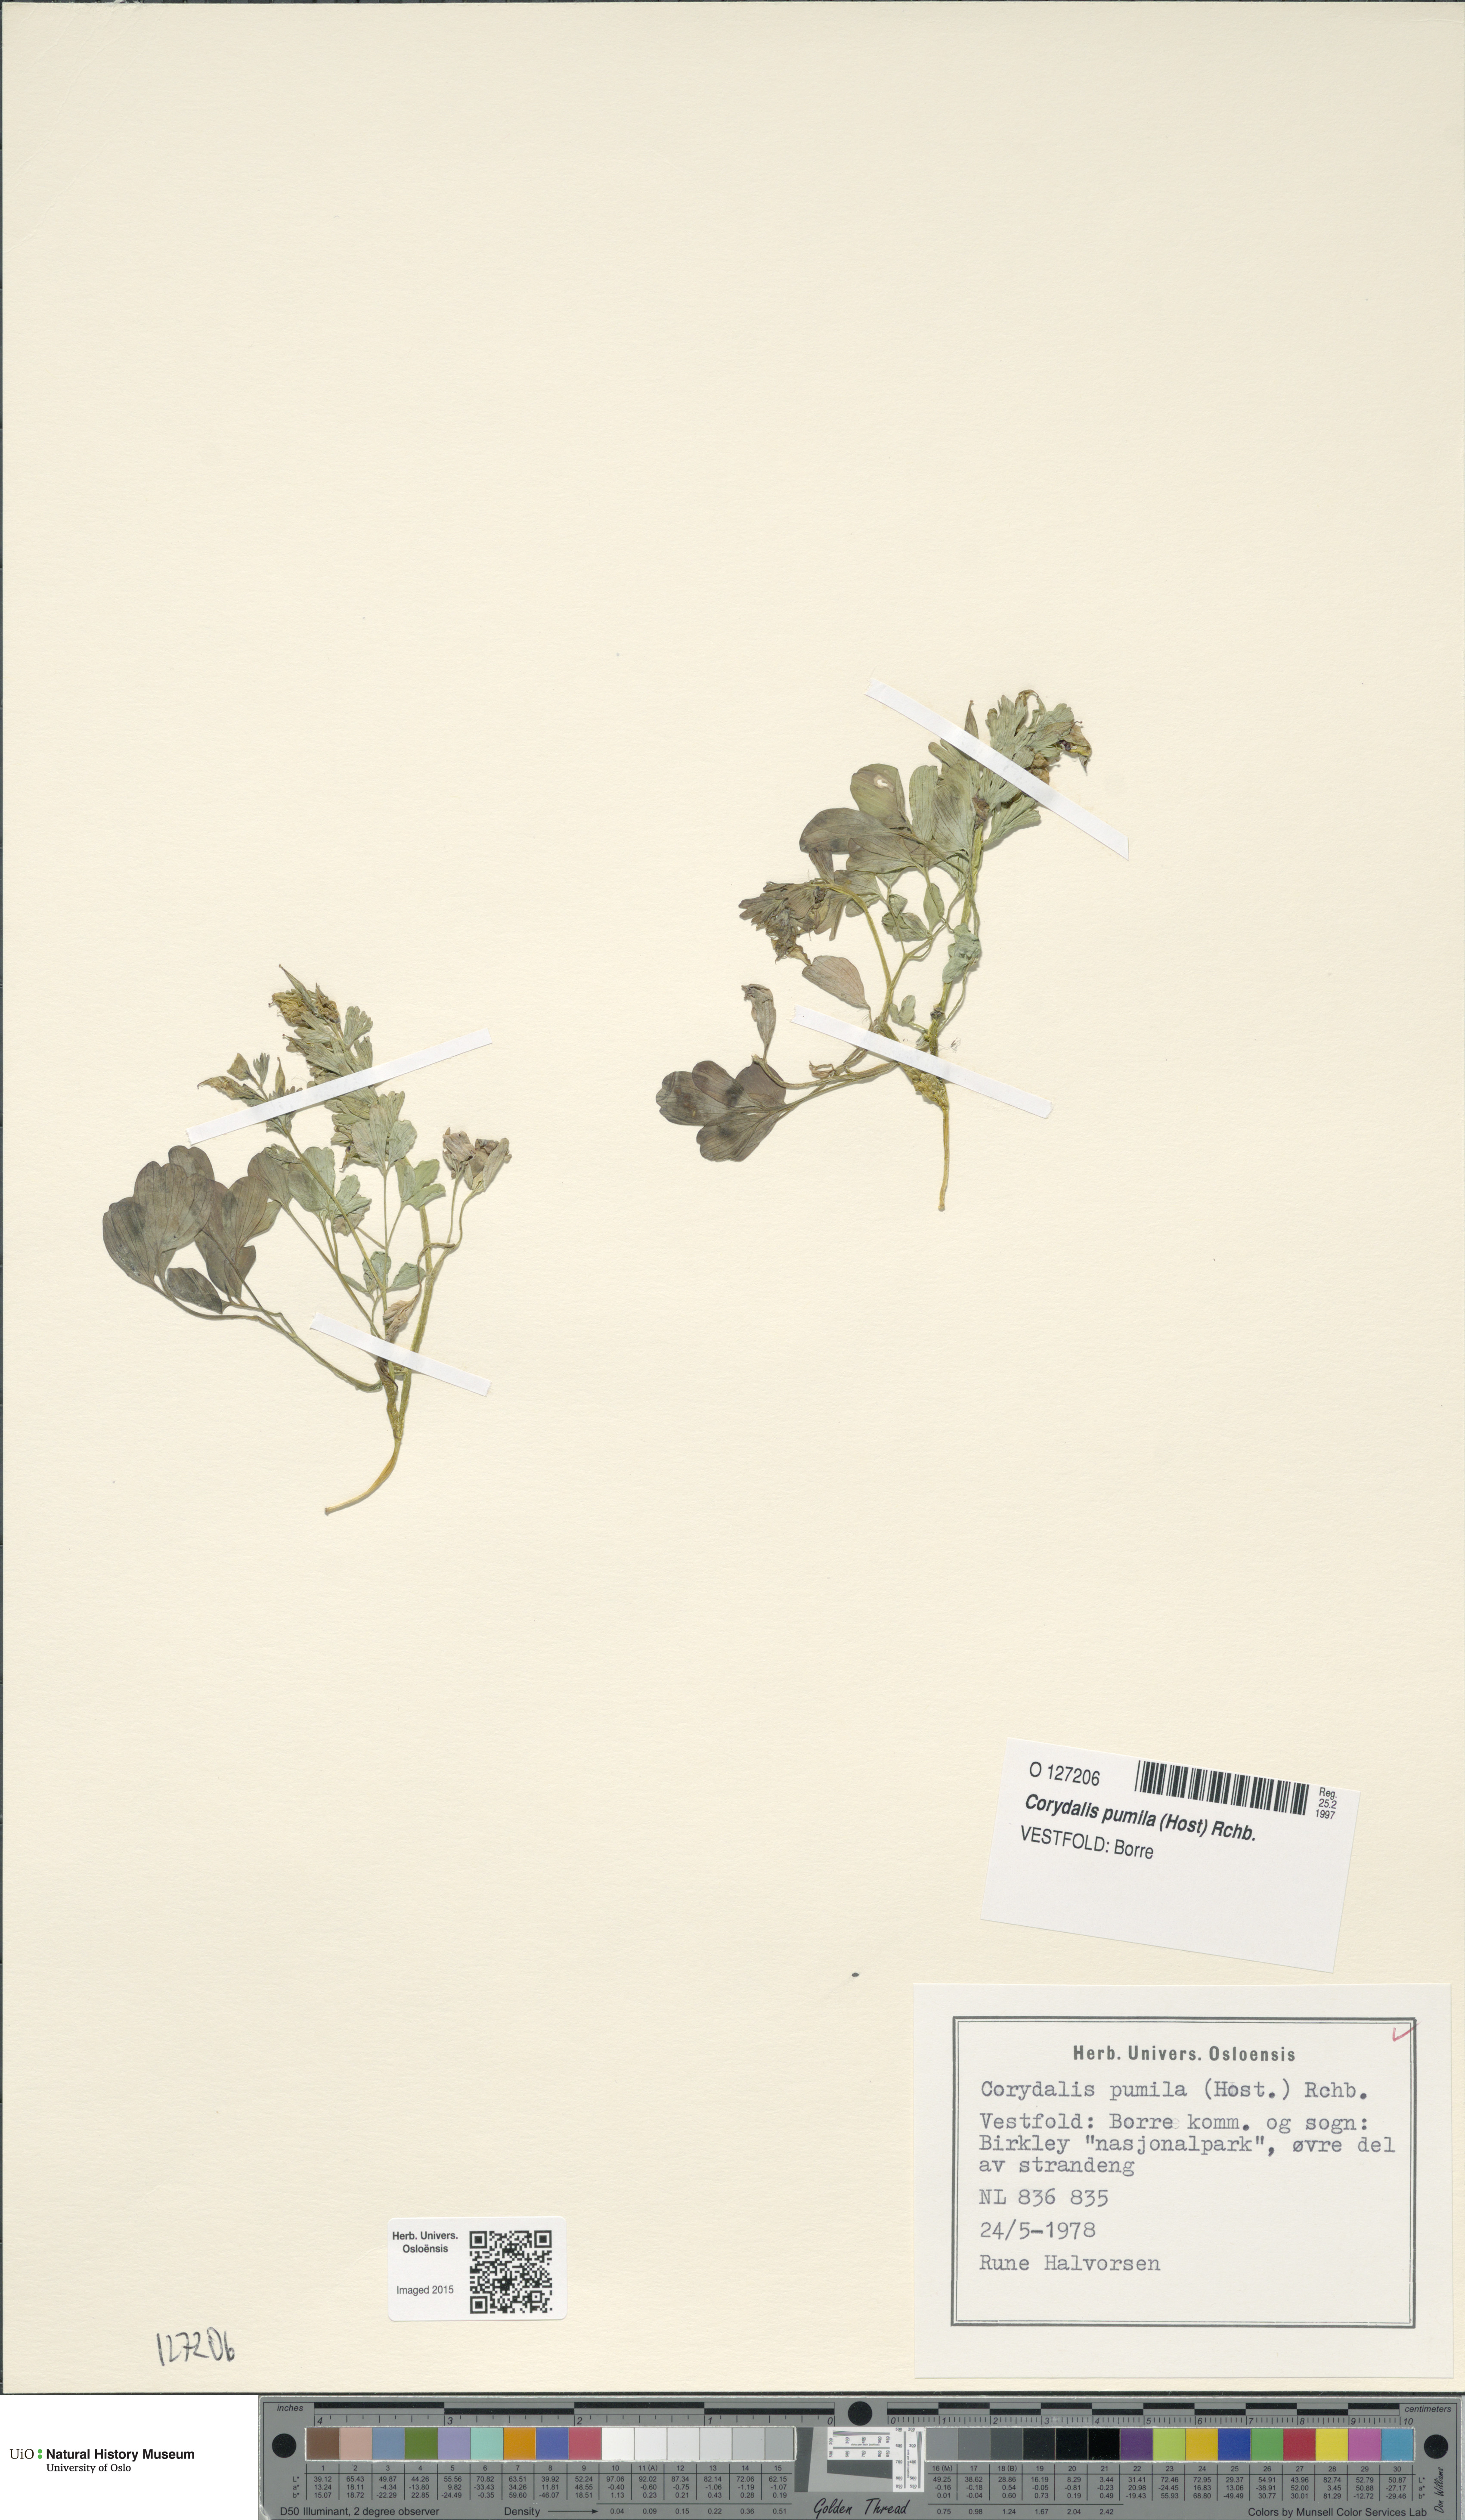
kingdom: Plantae
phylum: Tracheophyta
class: Magnoliopsida
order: Ranunculales
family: Papaveraceae
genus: Corydalis
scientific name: Corydalis pumila
